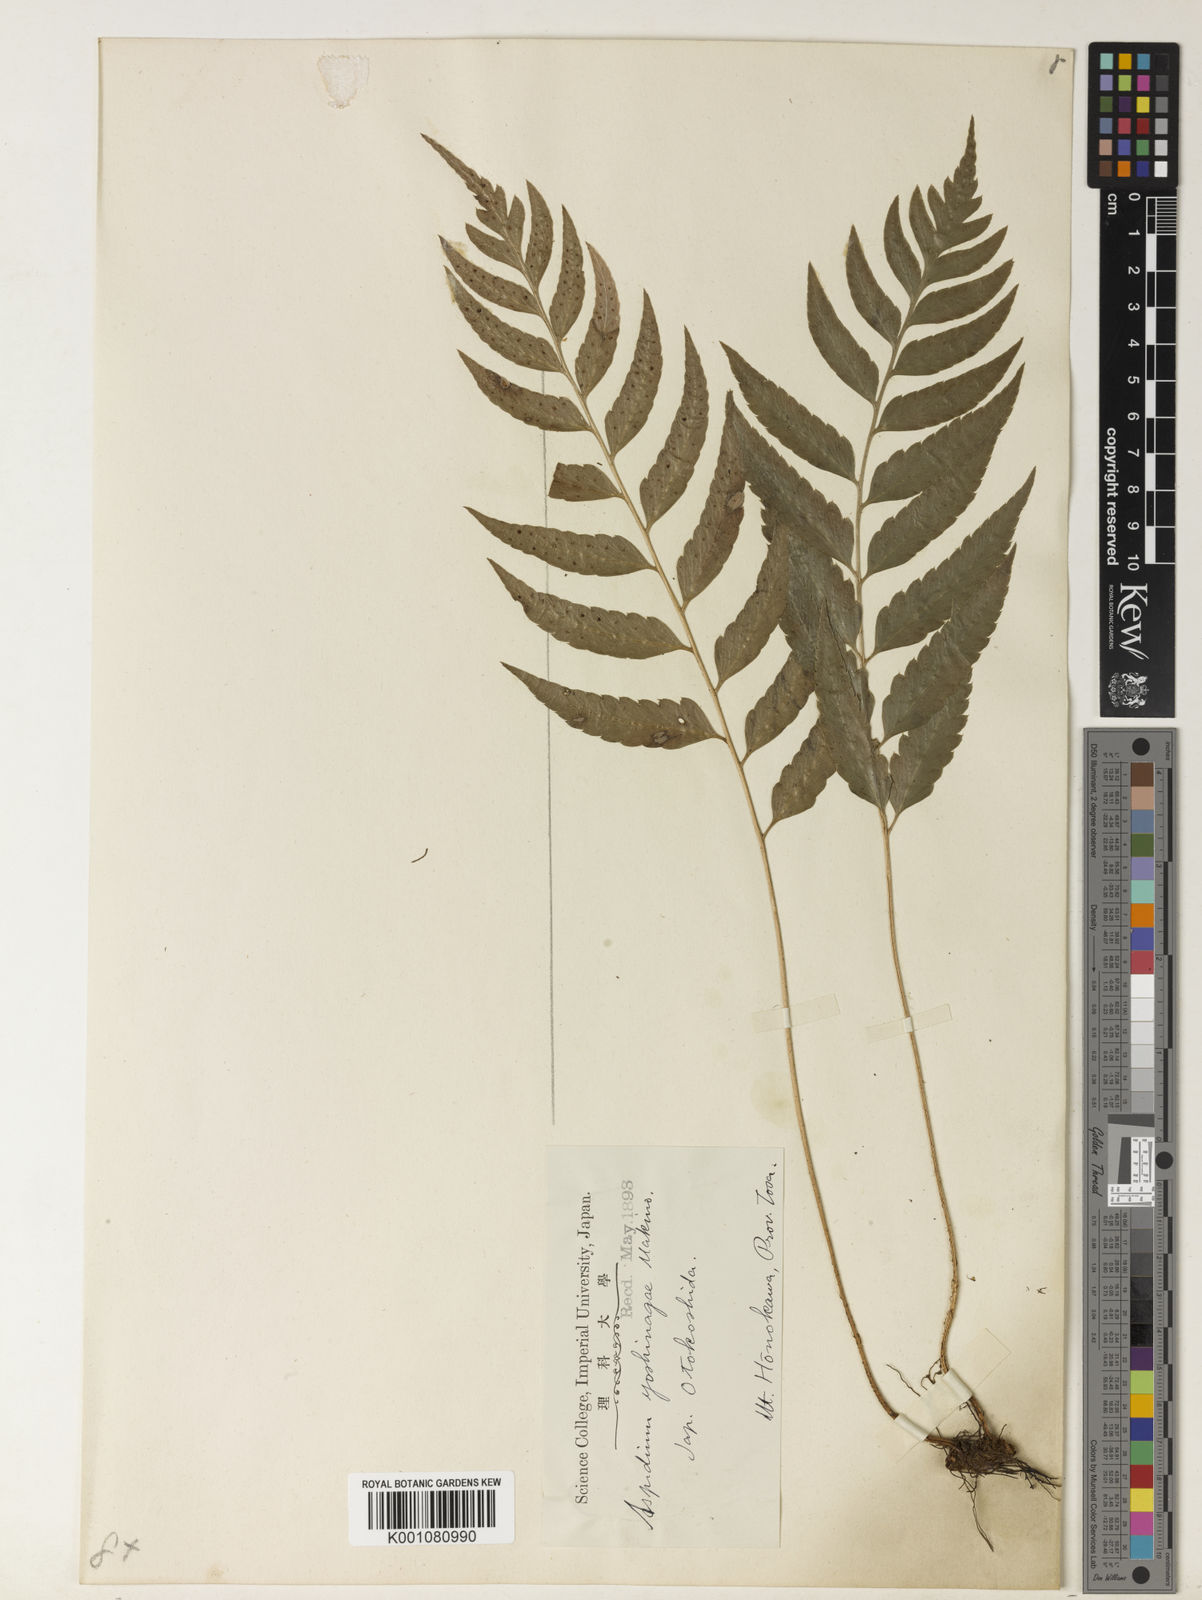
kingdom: Plantae
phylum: Tracheophyta
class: Polypodiopsida
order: Polypodiales
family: Dryopteridaceae
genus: Arachniodes
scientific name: Arachniodes assamica
